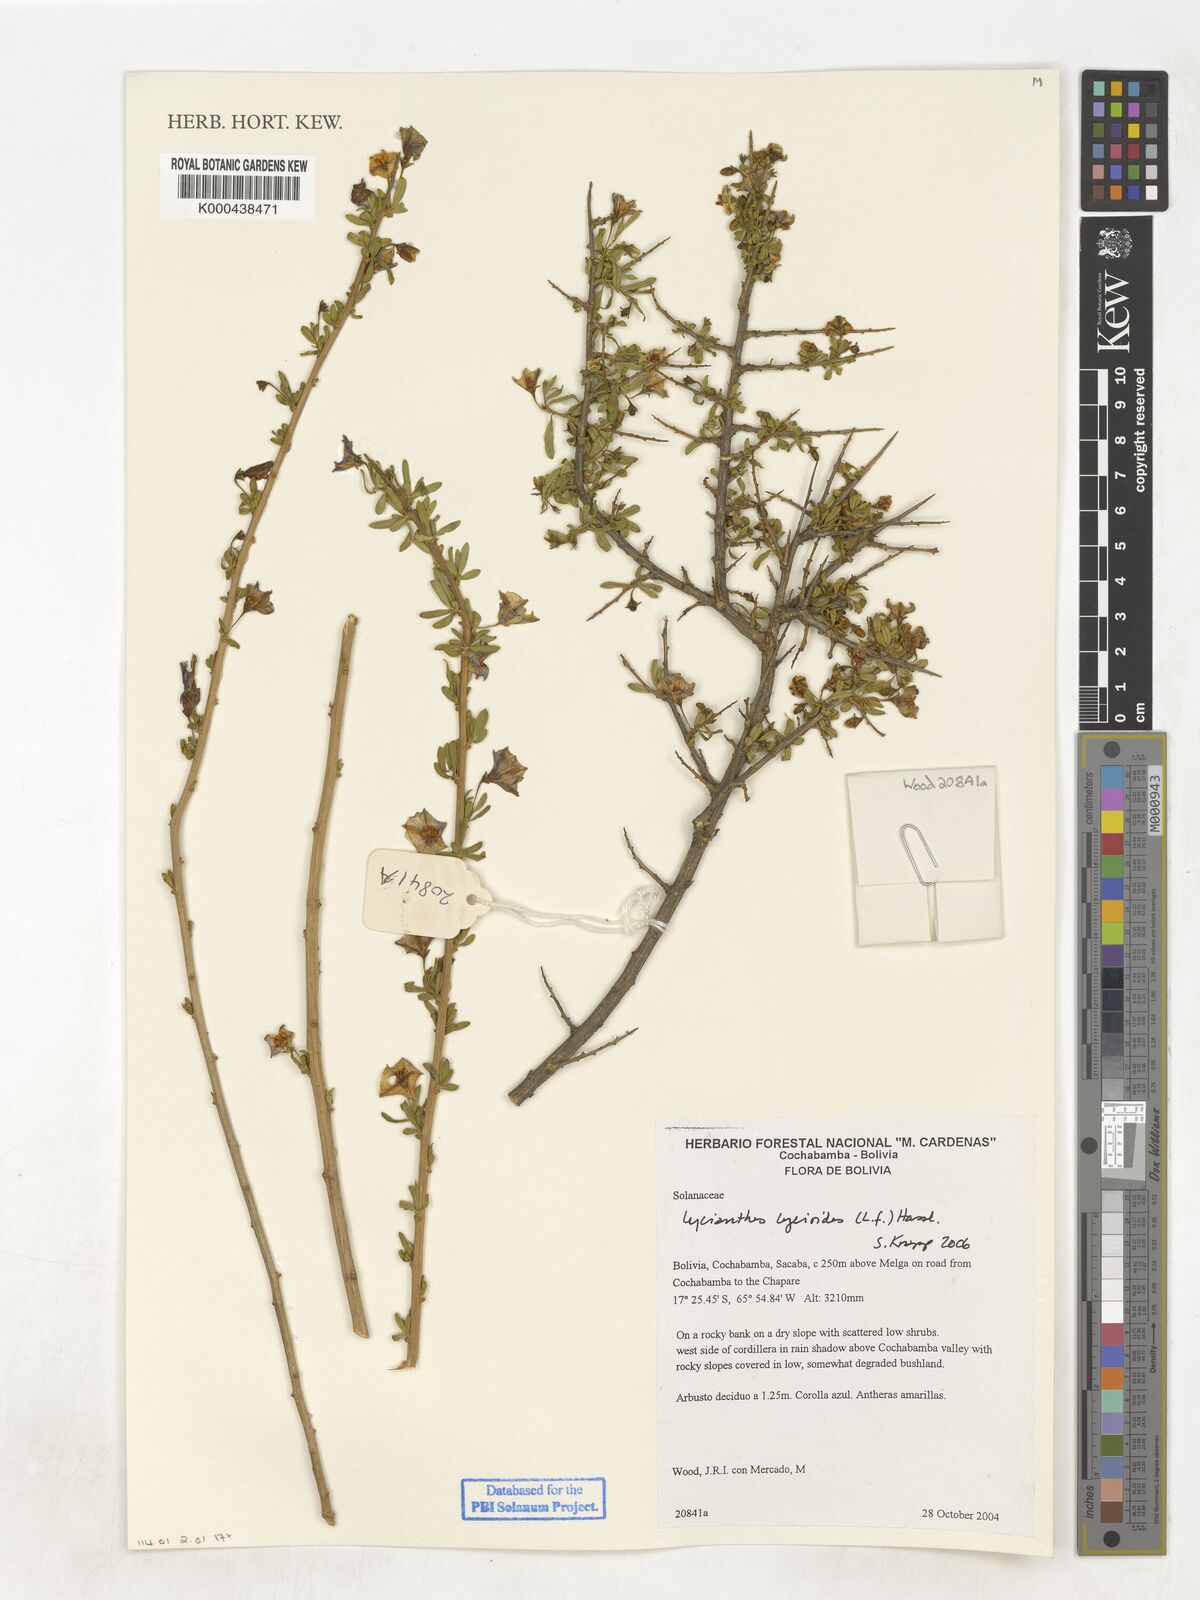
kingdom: Plantae
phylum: Tracheophyta
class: Magnoliopsida
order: Solanales
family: Solanaceae
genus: Lycianthes
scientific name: Lycianthes lycioides
